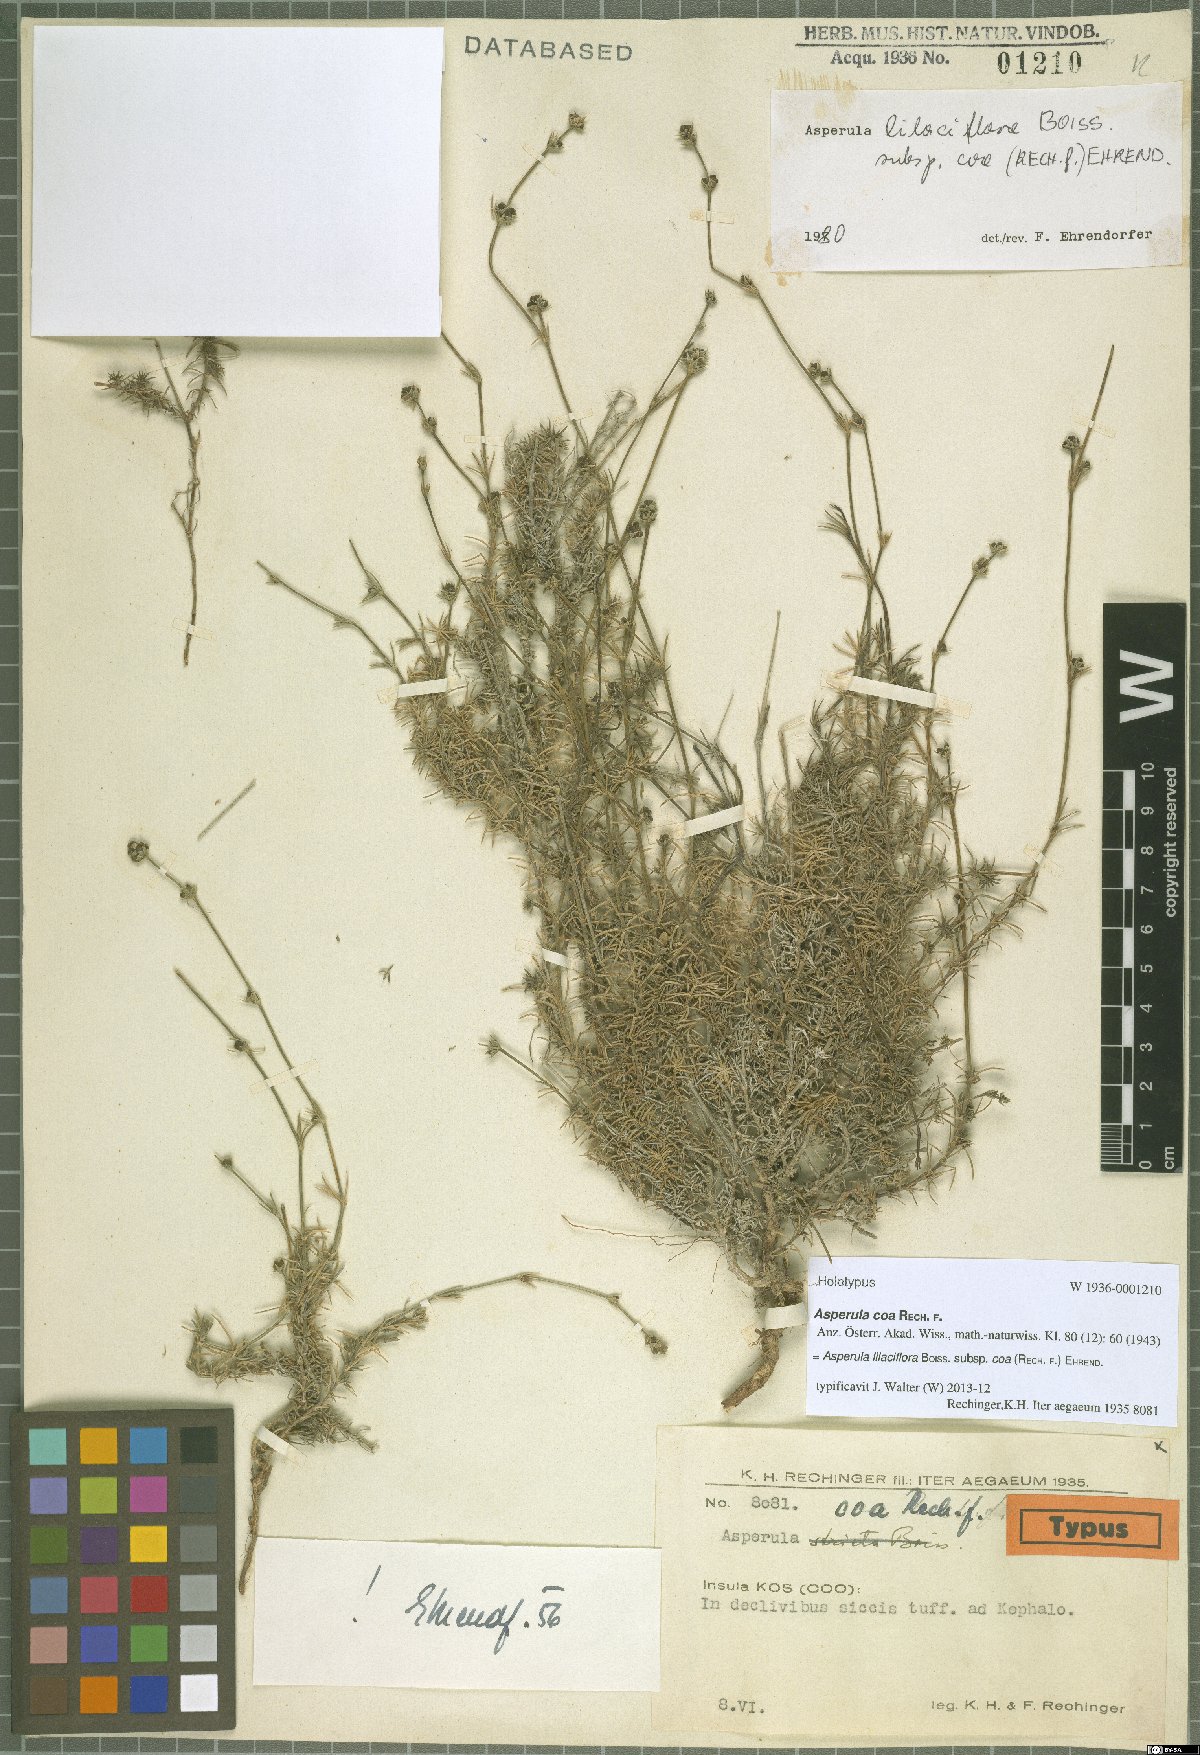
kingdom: Plantae
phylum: Tracheophyta
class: Magnoliopsida
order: Gentianales
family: Rubiaceae
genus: Cynanchica
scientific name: Cynanchica lilaciflora
